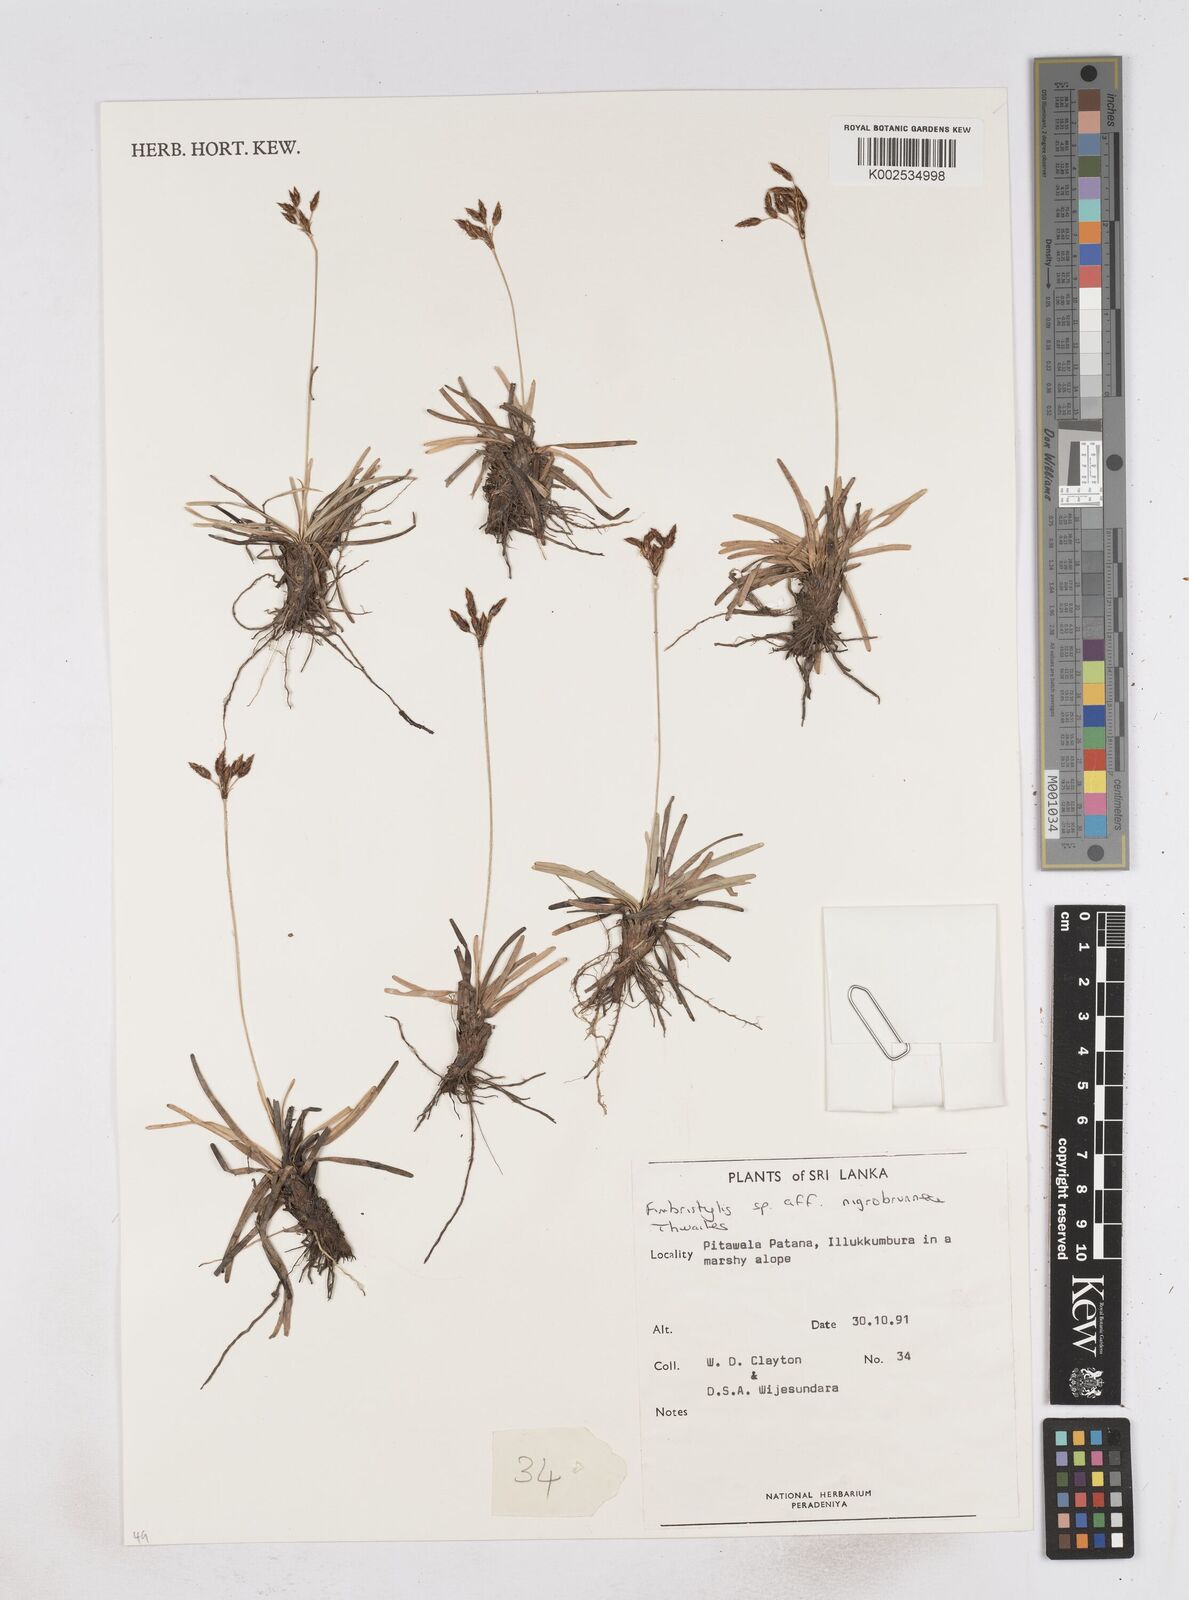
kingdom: Plantae
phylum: Tracheophyta
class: Liliopsida
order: Poales
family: Cyperaceae
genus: Fimbristylis
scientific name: Fimbristylis nigrobrunnea
